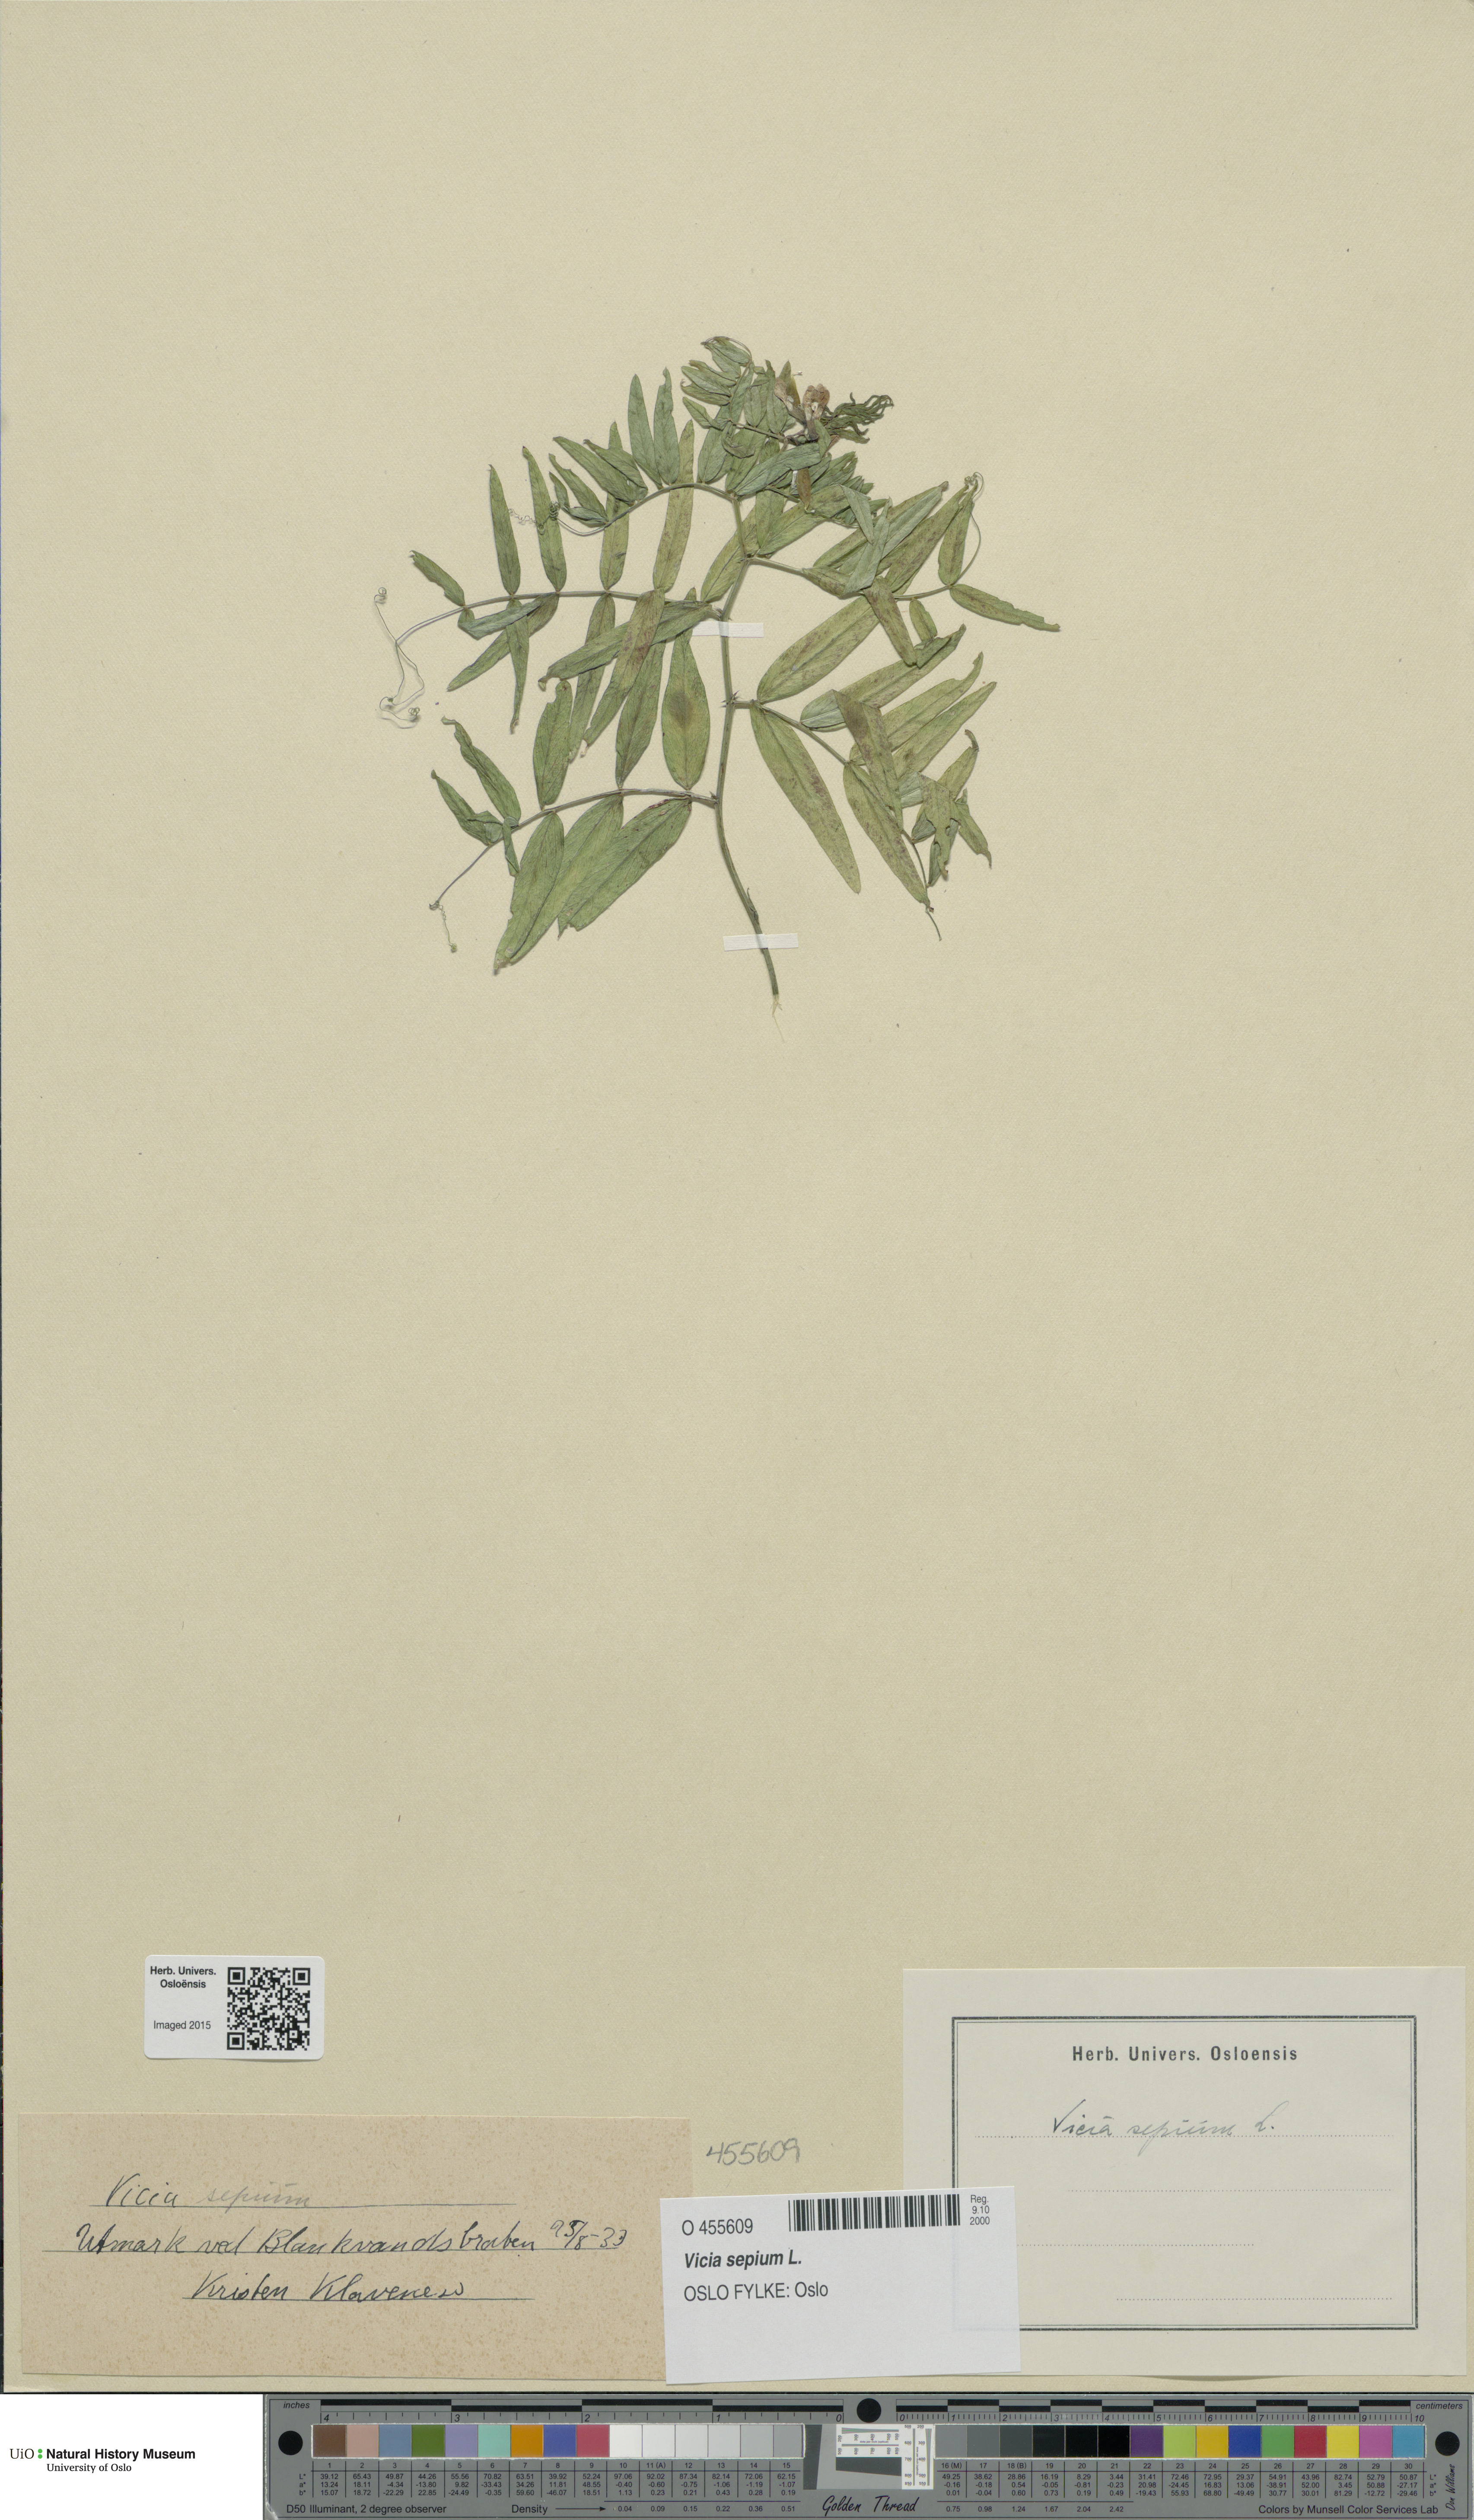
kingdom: Plantae
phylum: Tracheophyta
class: Magnoliopsida
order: Fabales
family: Fabaceae
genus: Vicia
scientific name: Vicia sepium
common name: Bush vetch
